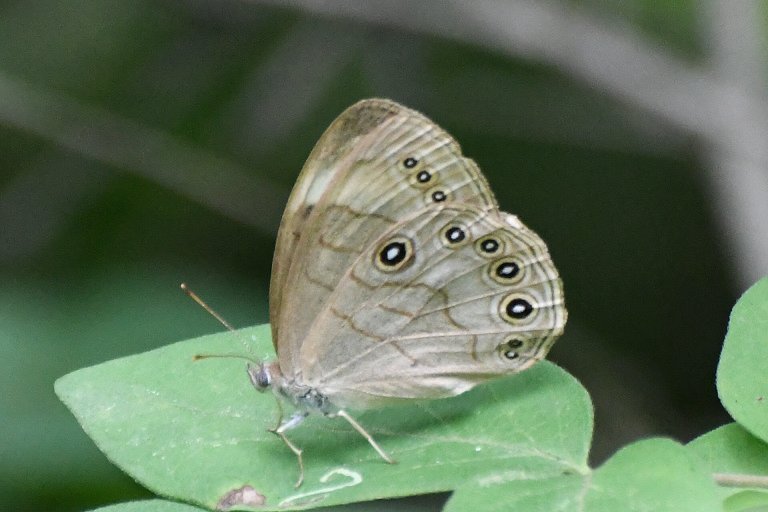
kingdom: Animalia
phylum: Arthropoda
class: Insecta
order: Lepidoptera
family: Nymphalidae
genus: Lethe
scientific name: Lethe eurydice
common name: Appalachian Eyed Brown
